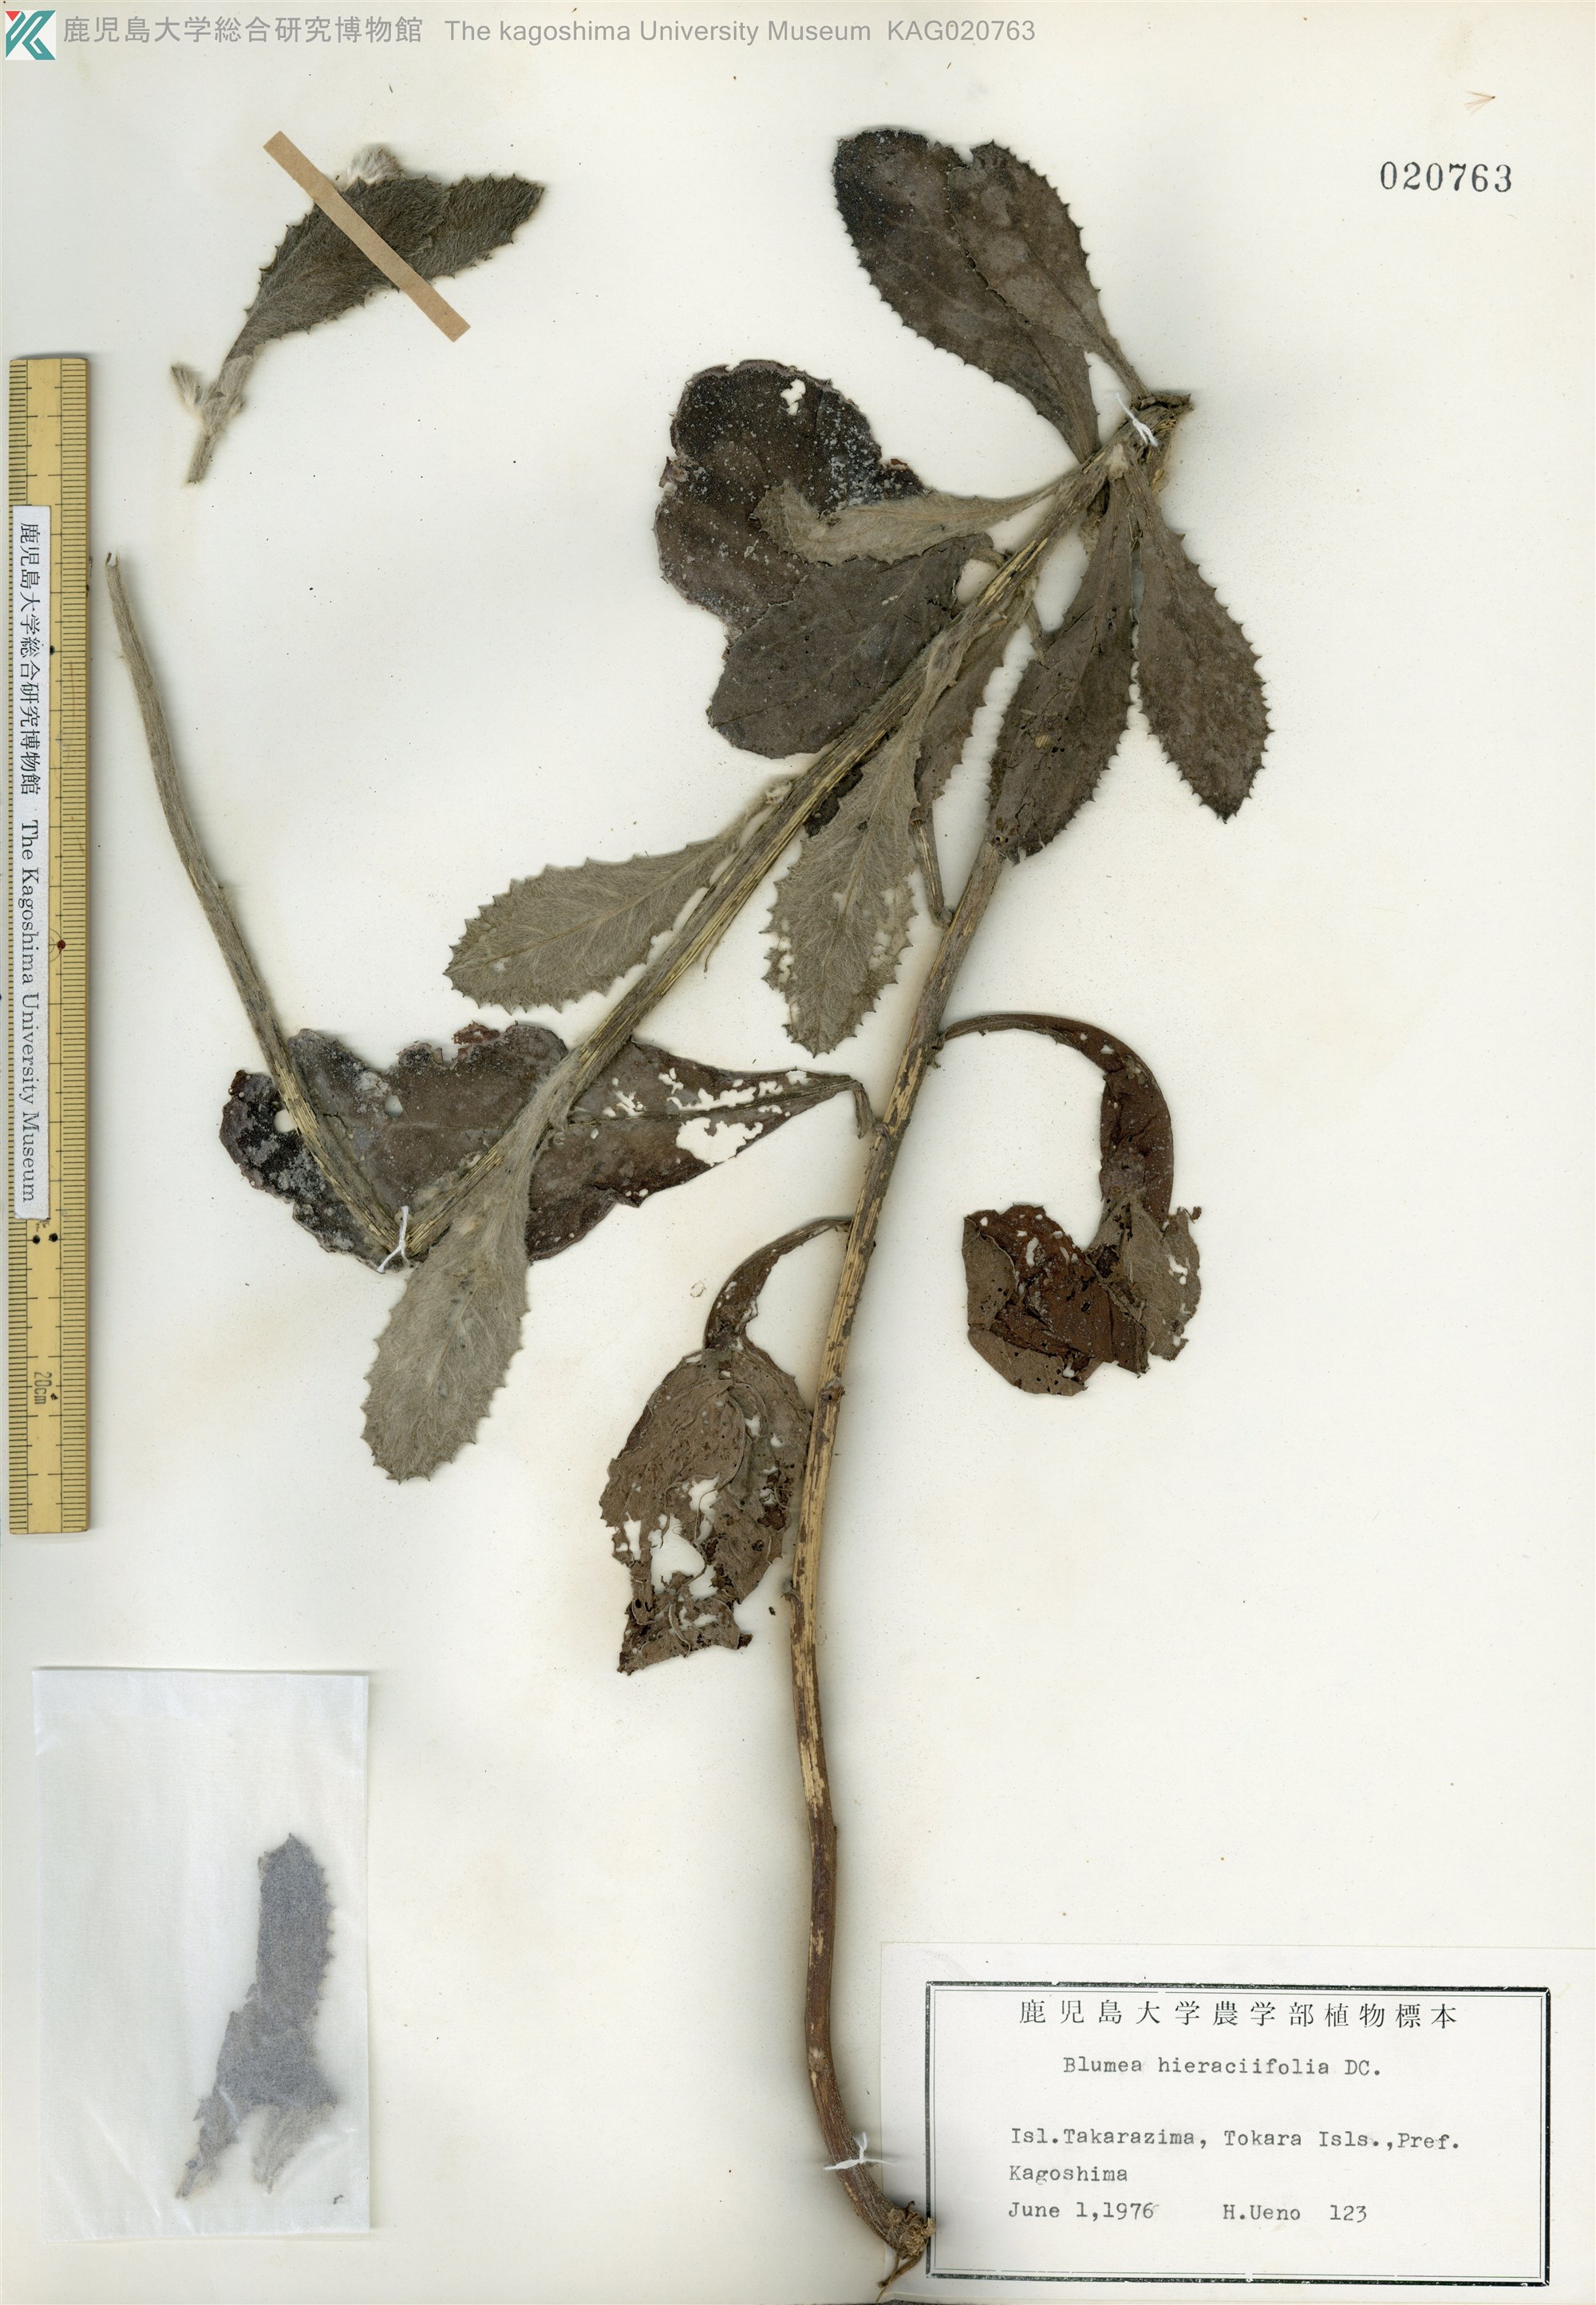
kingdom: Plantae
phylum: Tracheophyta
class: Magnoliopsida
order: Asterales
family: Asteraceae
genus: Blumea
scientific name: Blumea hieraciifolia
